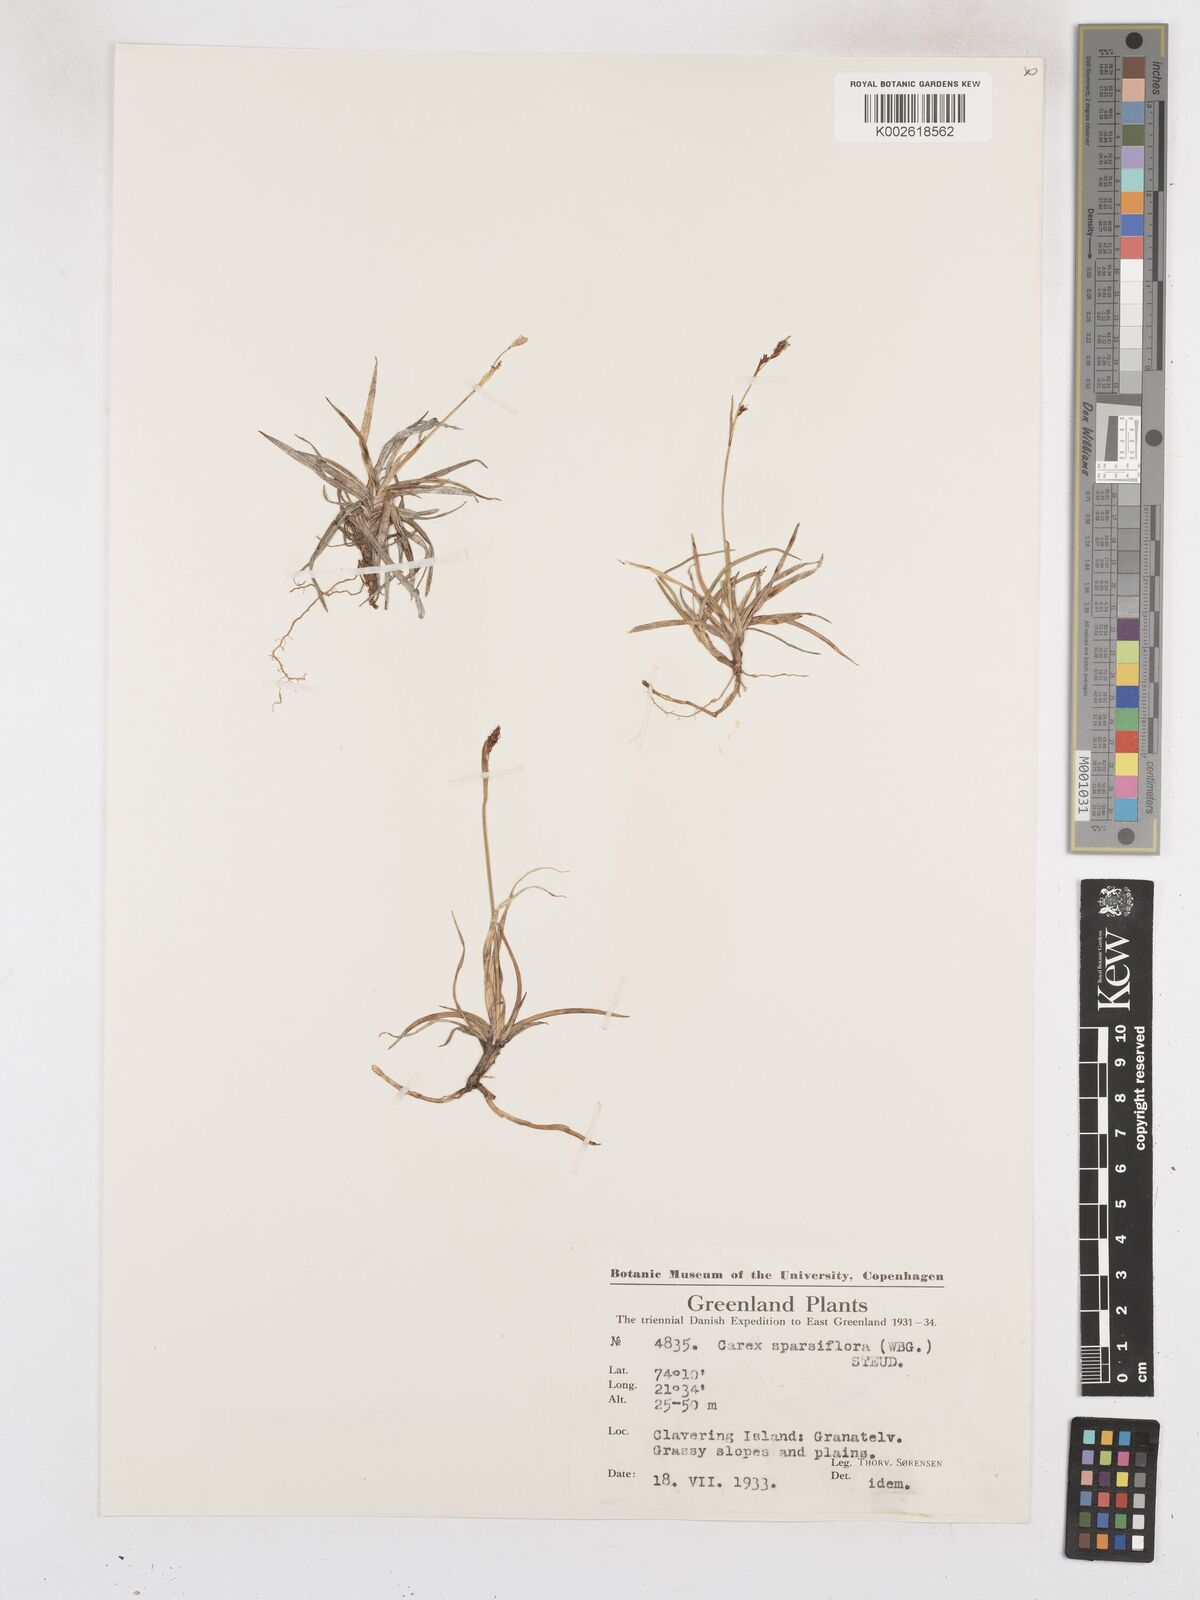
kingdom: Plantae
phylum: Tracheophyta
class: Liliopsida
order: Poales
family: Cyperaceae
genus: Carex
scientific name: Carex woodii
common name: Wood's sedge
